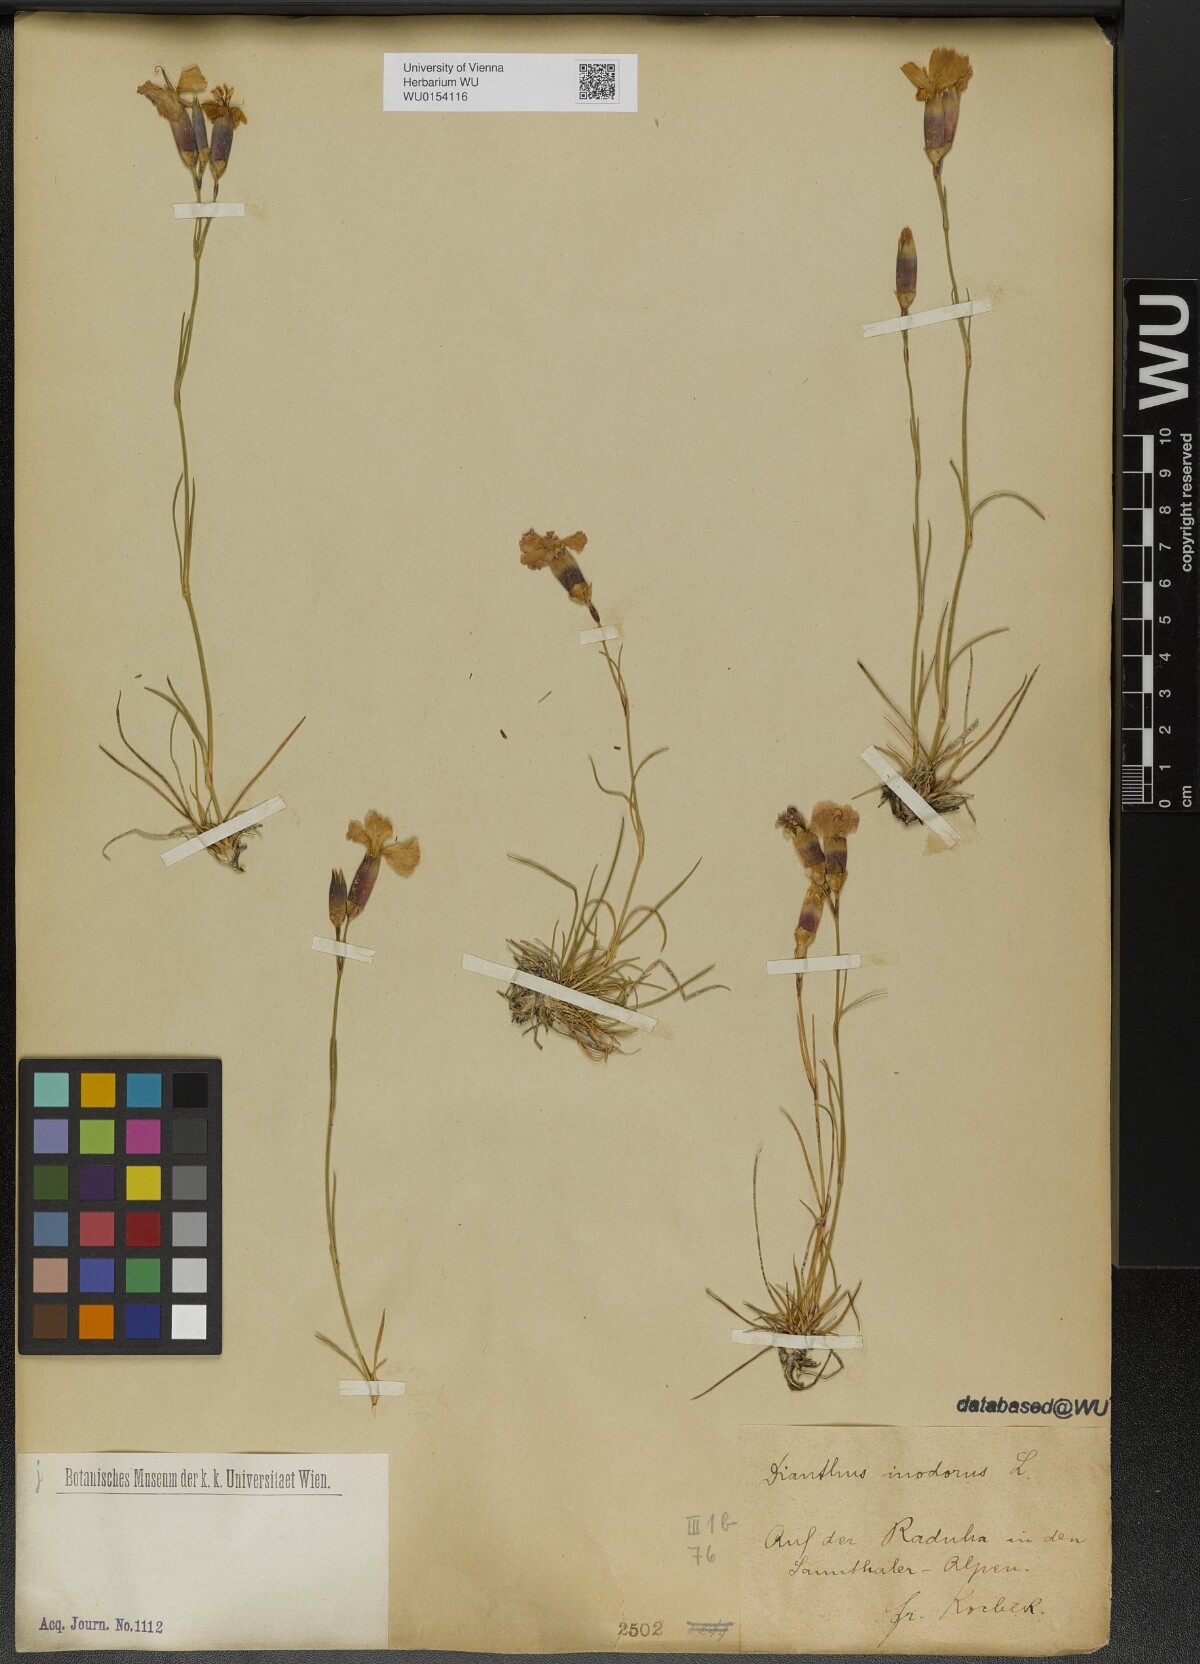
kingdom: Plantae
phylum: Tracheophyta
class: Magnoliopsida
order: Caryophyllales
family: Caryophyllaceae
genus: Dianthus
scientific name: Dianthus sylvestris
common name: Wood pink
